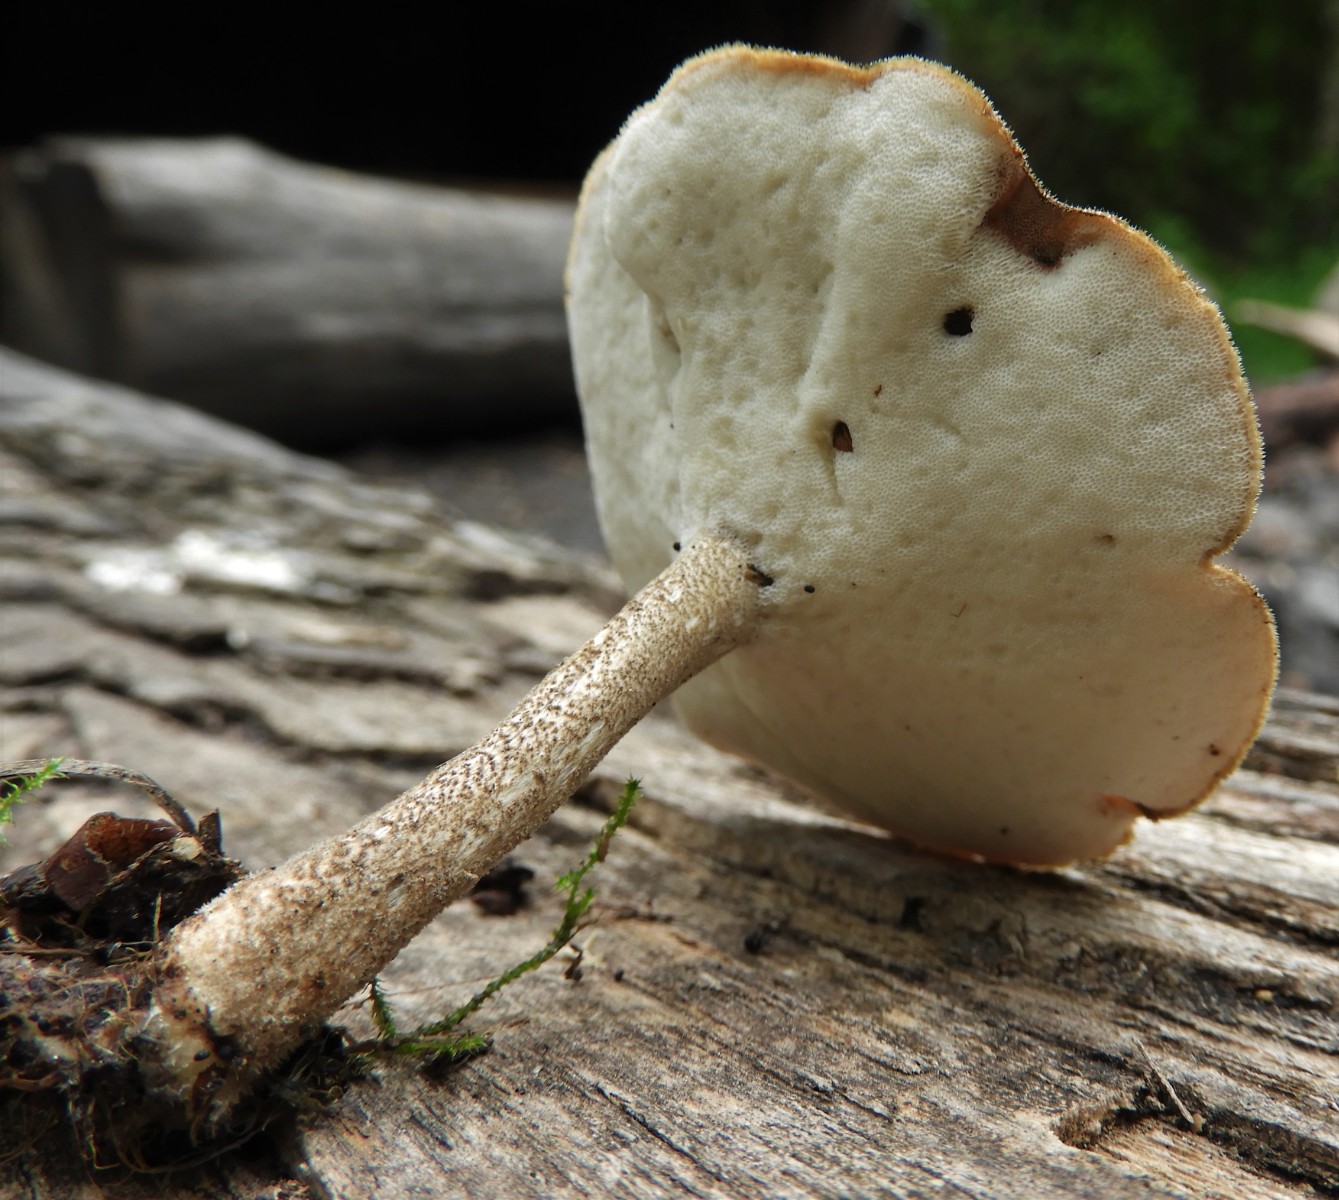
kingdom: Fungi
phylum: Basidiomycota
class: Agaricomycetes
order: Polyporales
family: Polyporaceae
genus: Lentinus
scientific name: Lentinus substrictus
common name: forårs-stilkporesvamp
